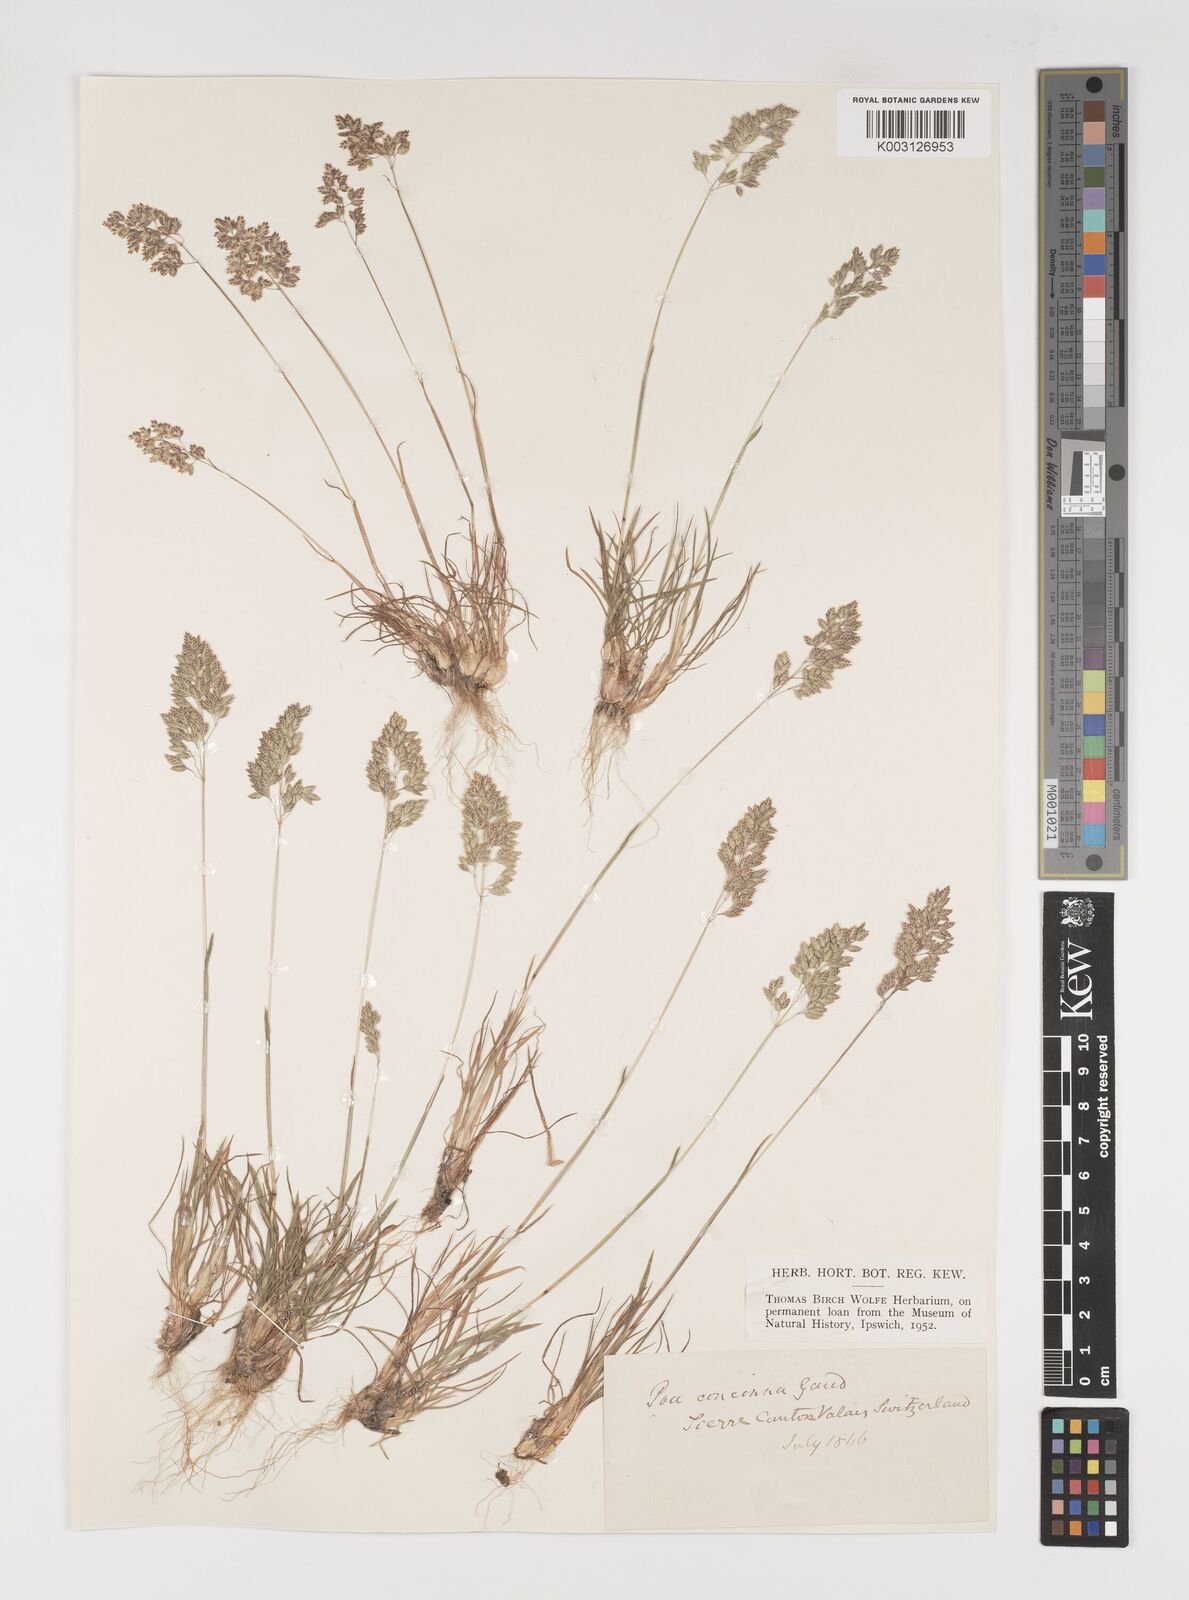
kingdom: Plantae
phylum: Tracheophyta
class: Liliopsida
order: Poales
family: Poaceae
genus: Poa
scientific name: Poa perconcinna
